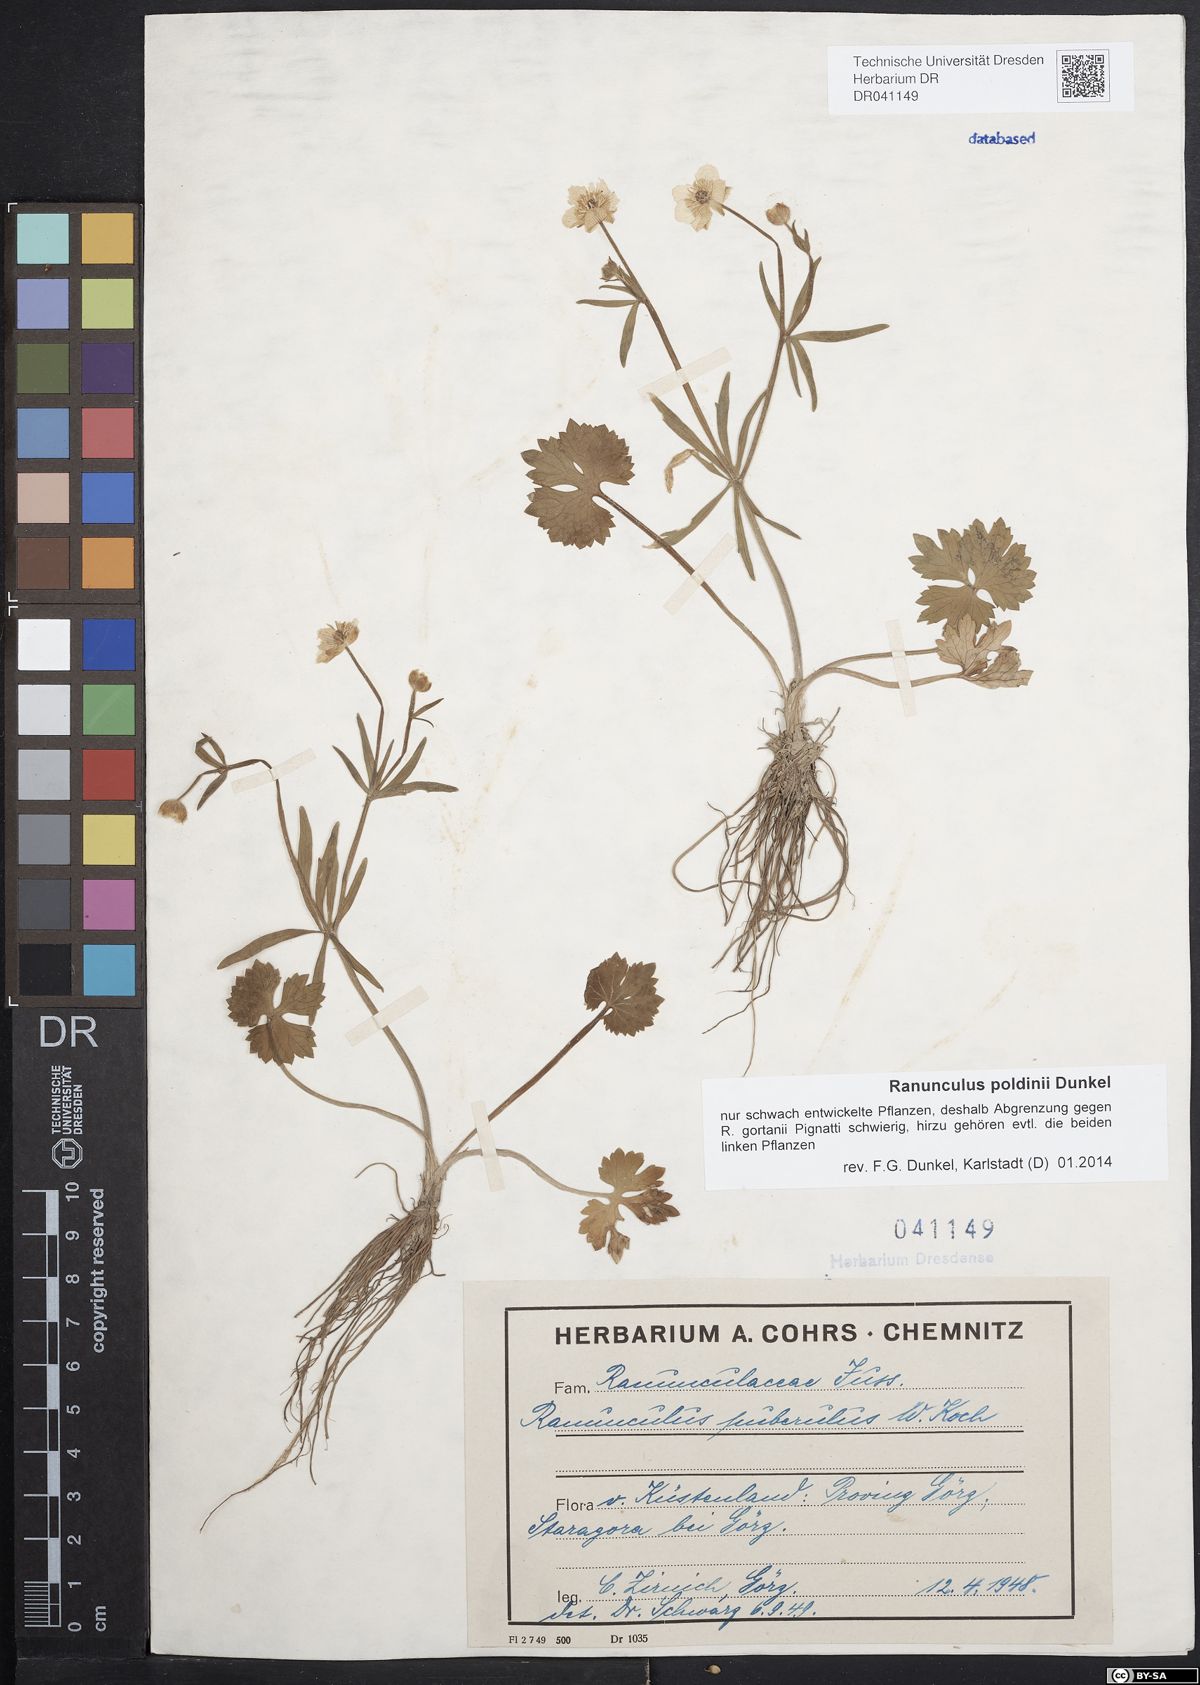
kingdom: Plantae
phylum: Tracheophyta
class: Magnoliopsida
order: Ranunculales
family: Ranunculaceae
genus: Ranunculus
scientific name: Ranunculus poldinii
